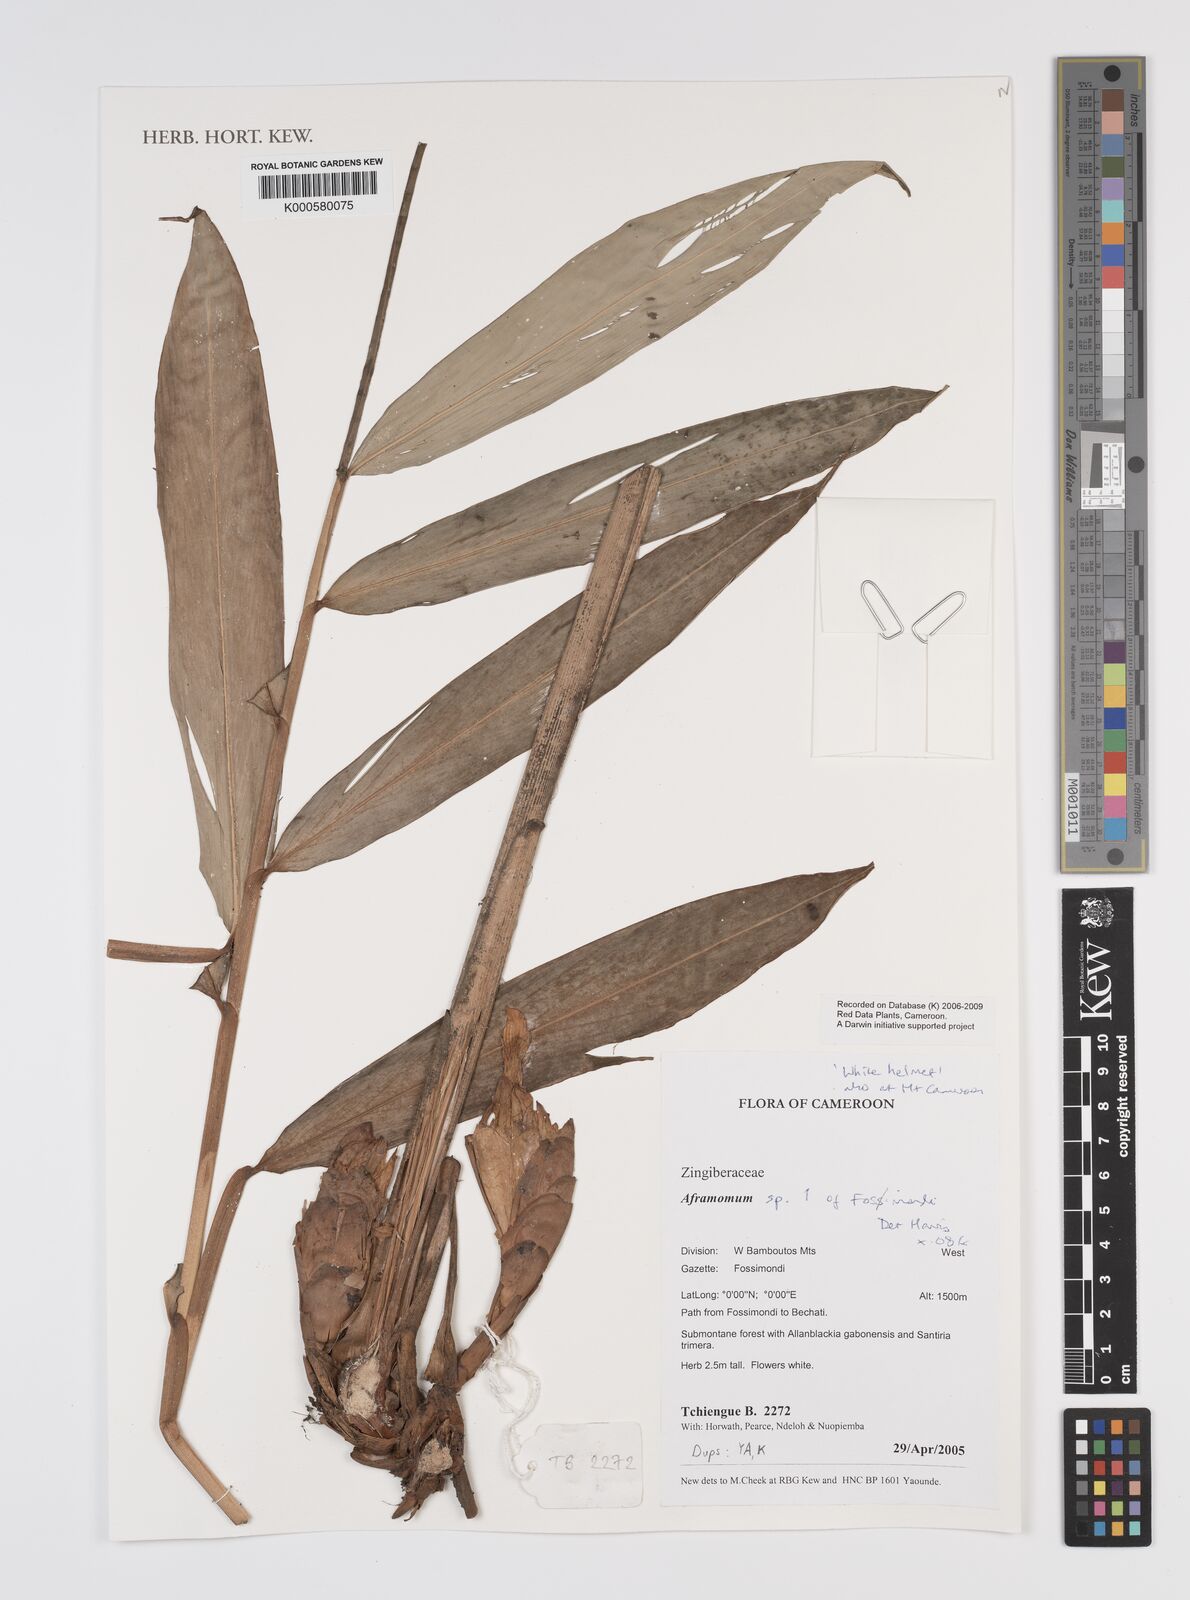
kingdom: Plantae
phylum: Tracheophyta
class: Liliopsida
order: Zingiberales
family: Zingiberaceae
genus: Aframomum
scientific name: Aframomum
